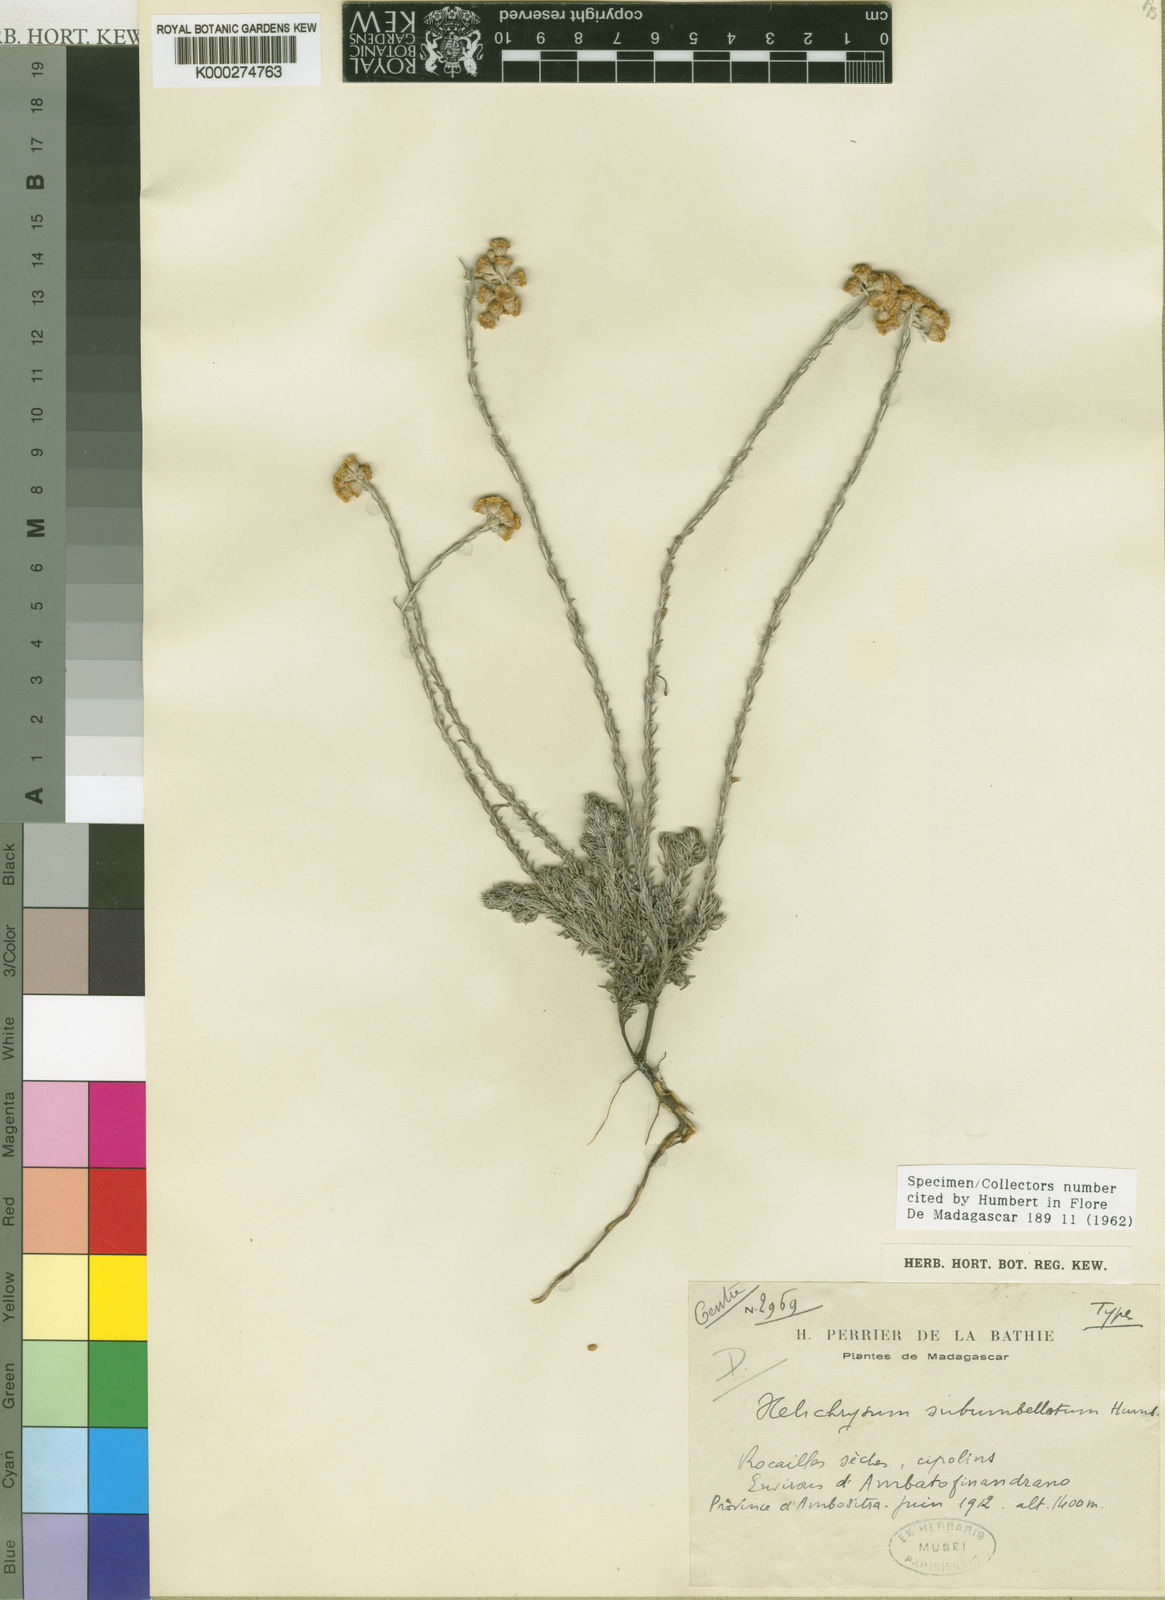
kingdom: Plantae
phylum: Tracheophyta
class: Magnoliopsida
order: Asterales
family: Asteraceae
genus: Helichrysum
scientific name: Helichrysum subumbellatum
